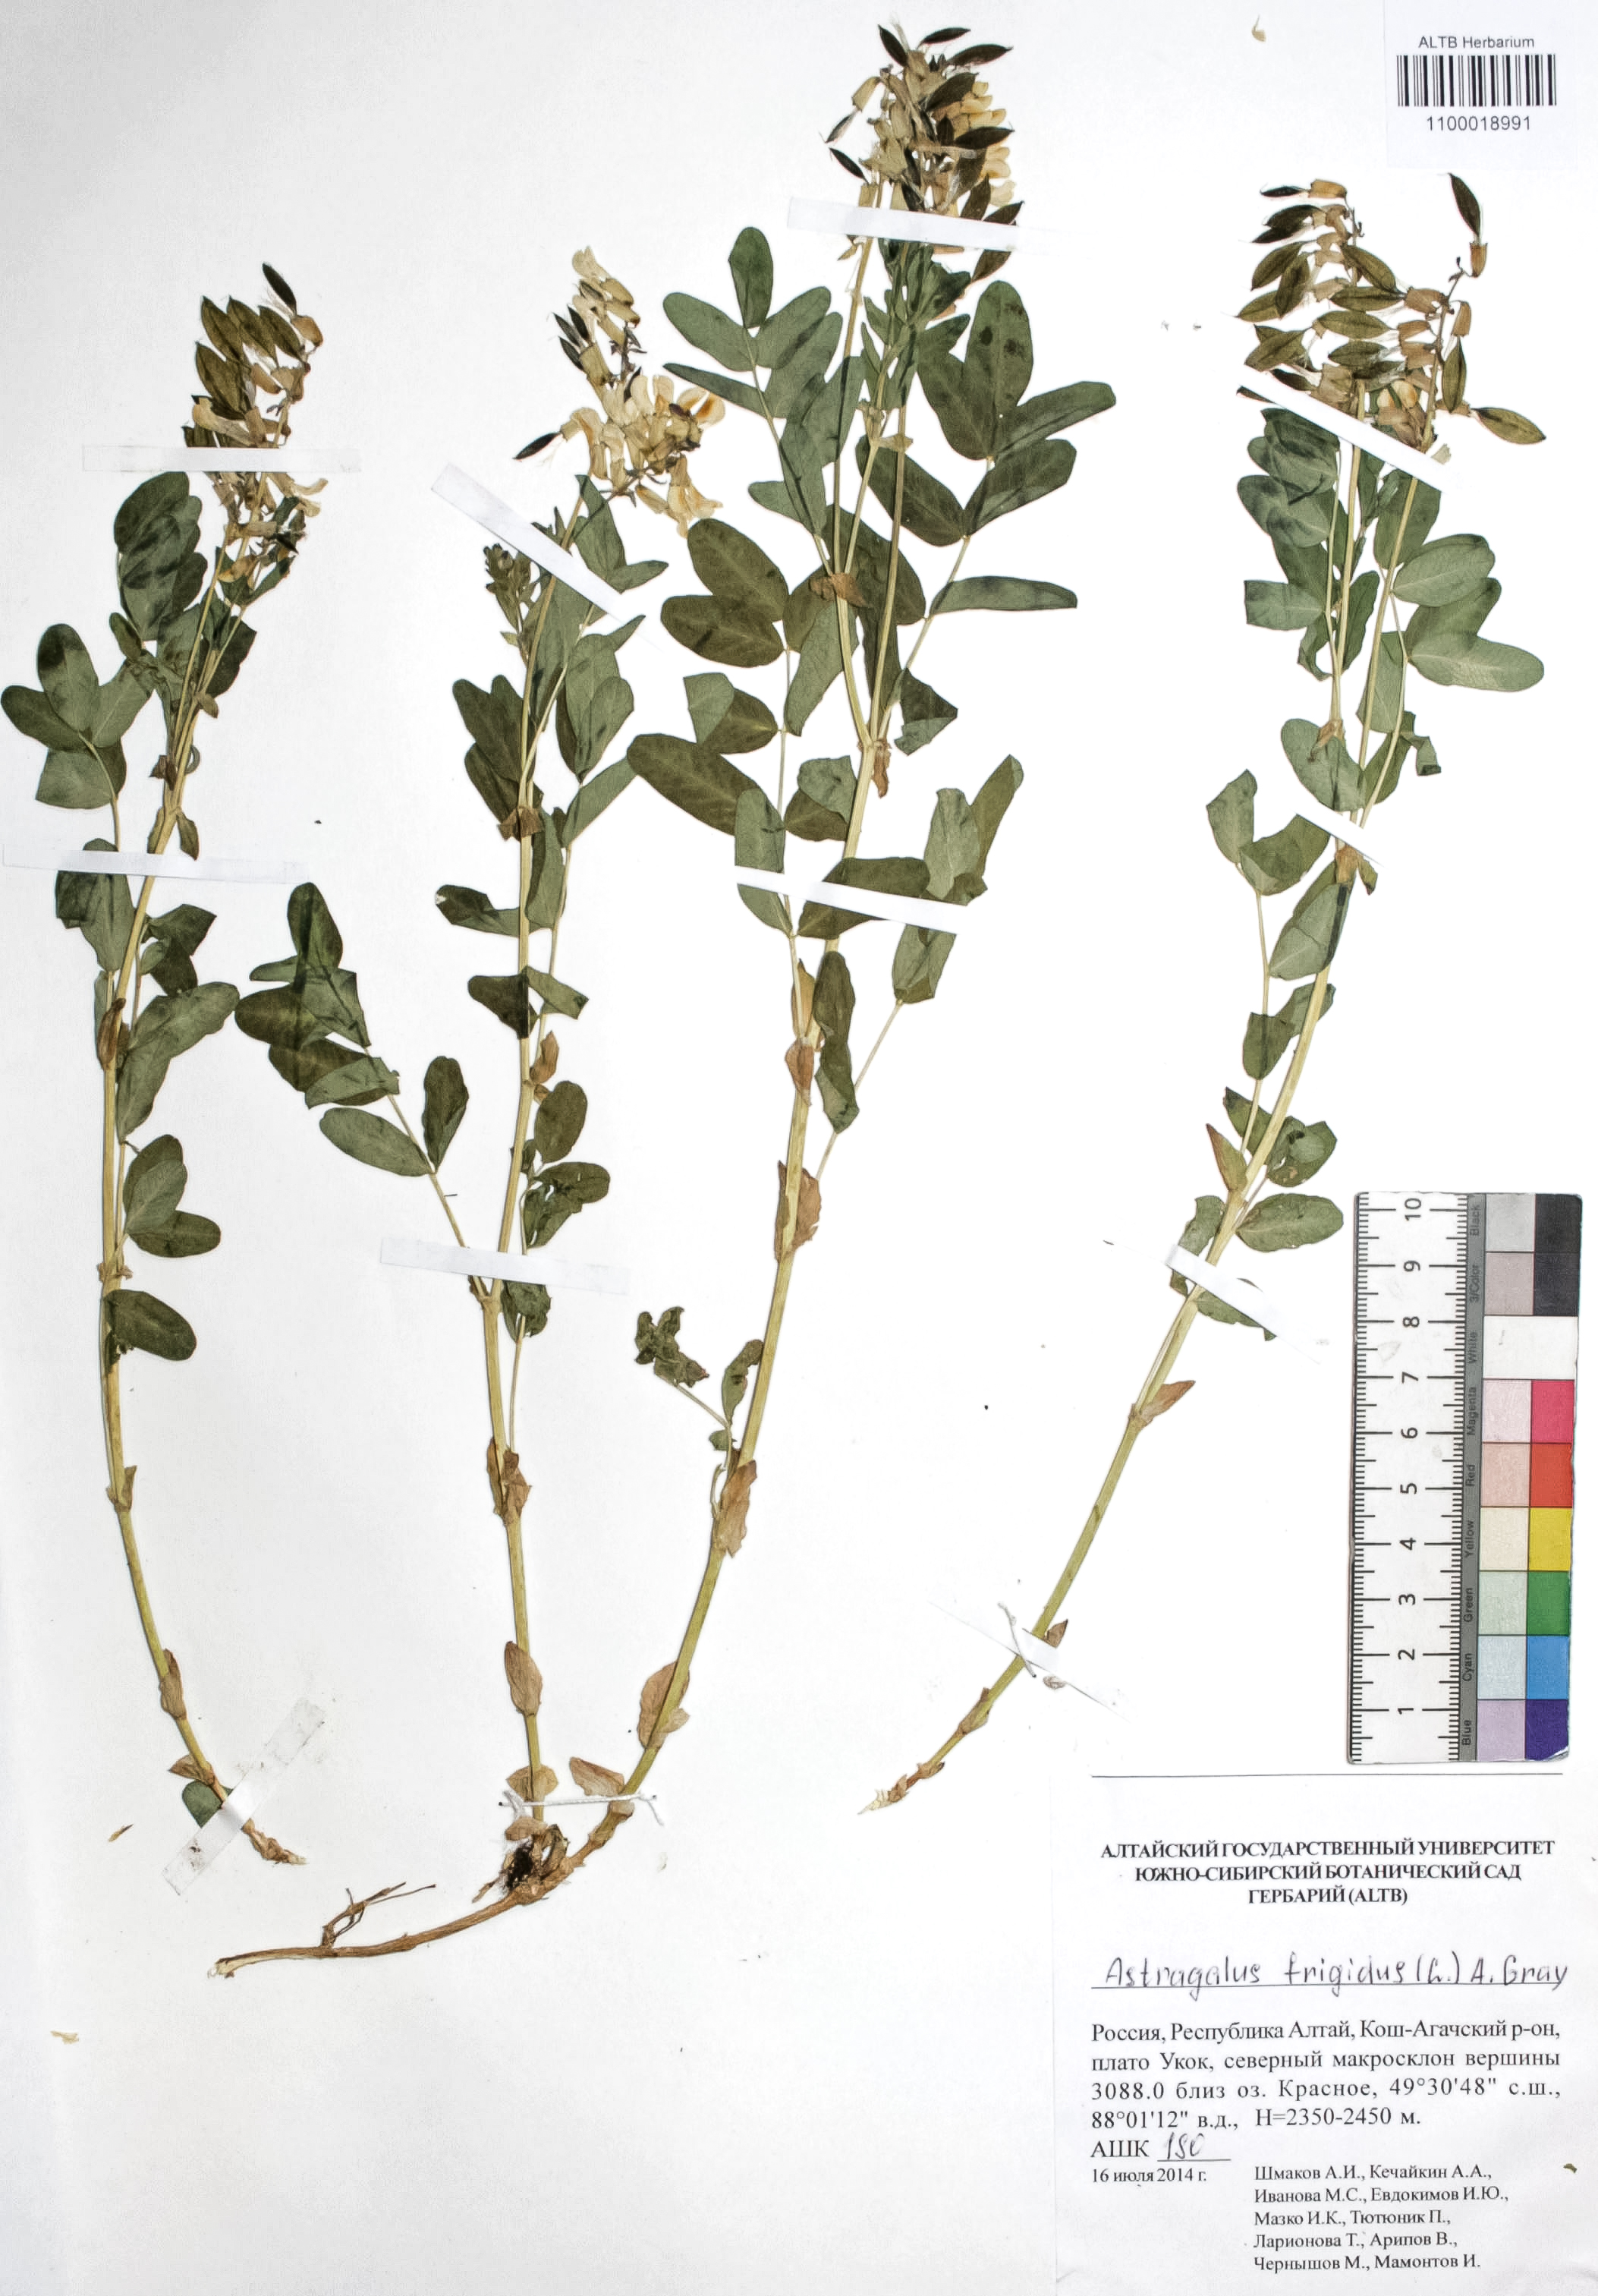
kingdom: Plantae
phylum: Tracheophyta
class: Magnoliopsida
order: Fabales
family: Fabaceae
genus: Astragalus
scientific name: Astragalus frigidus
